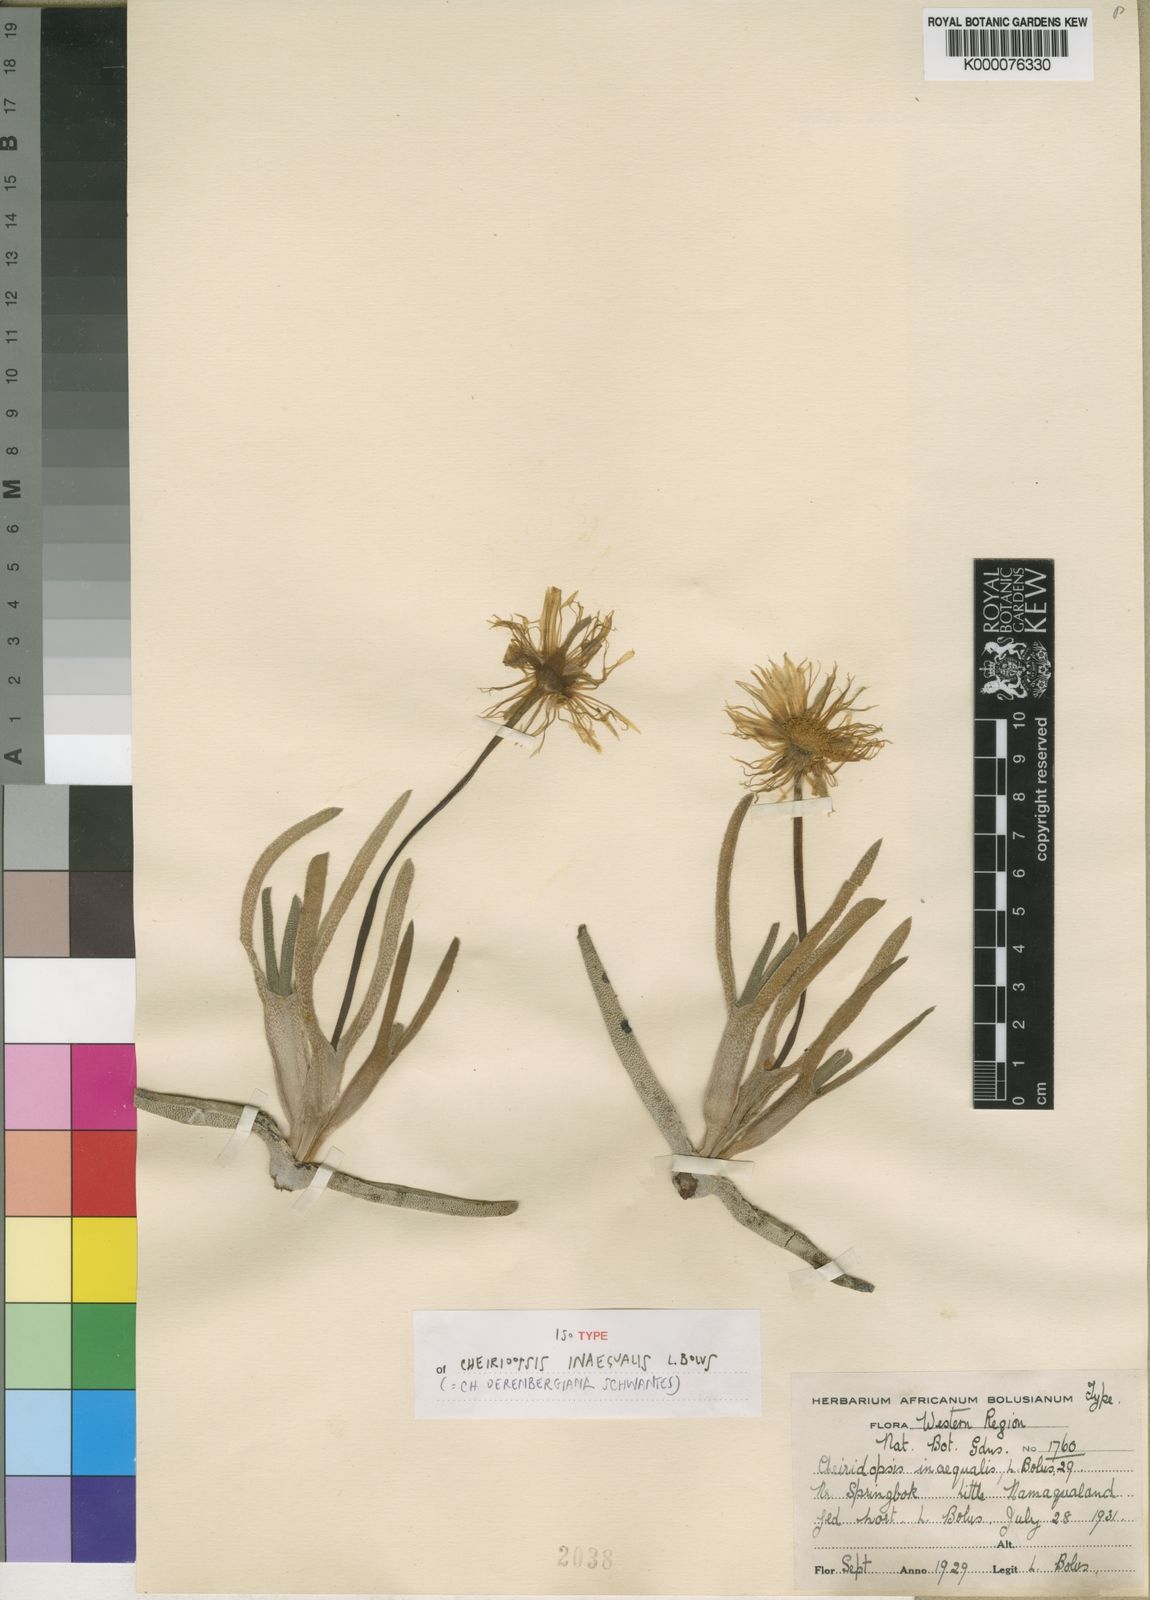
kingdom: Plantae
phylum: Tracheophyta
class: Magnoliopsida
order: Caryophyllales
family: Aizoaceae
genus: Cheiridopsis
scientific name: Cheiridopsis derenbergiana
